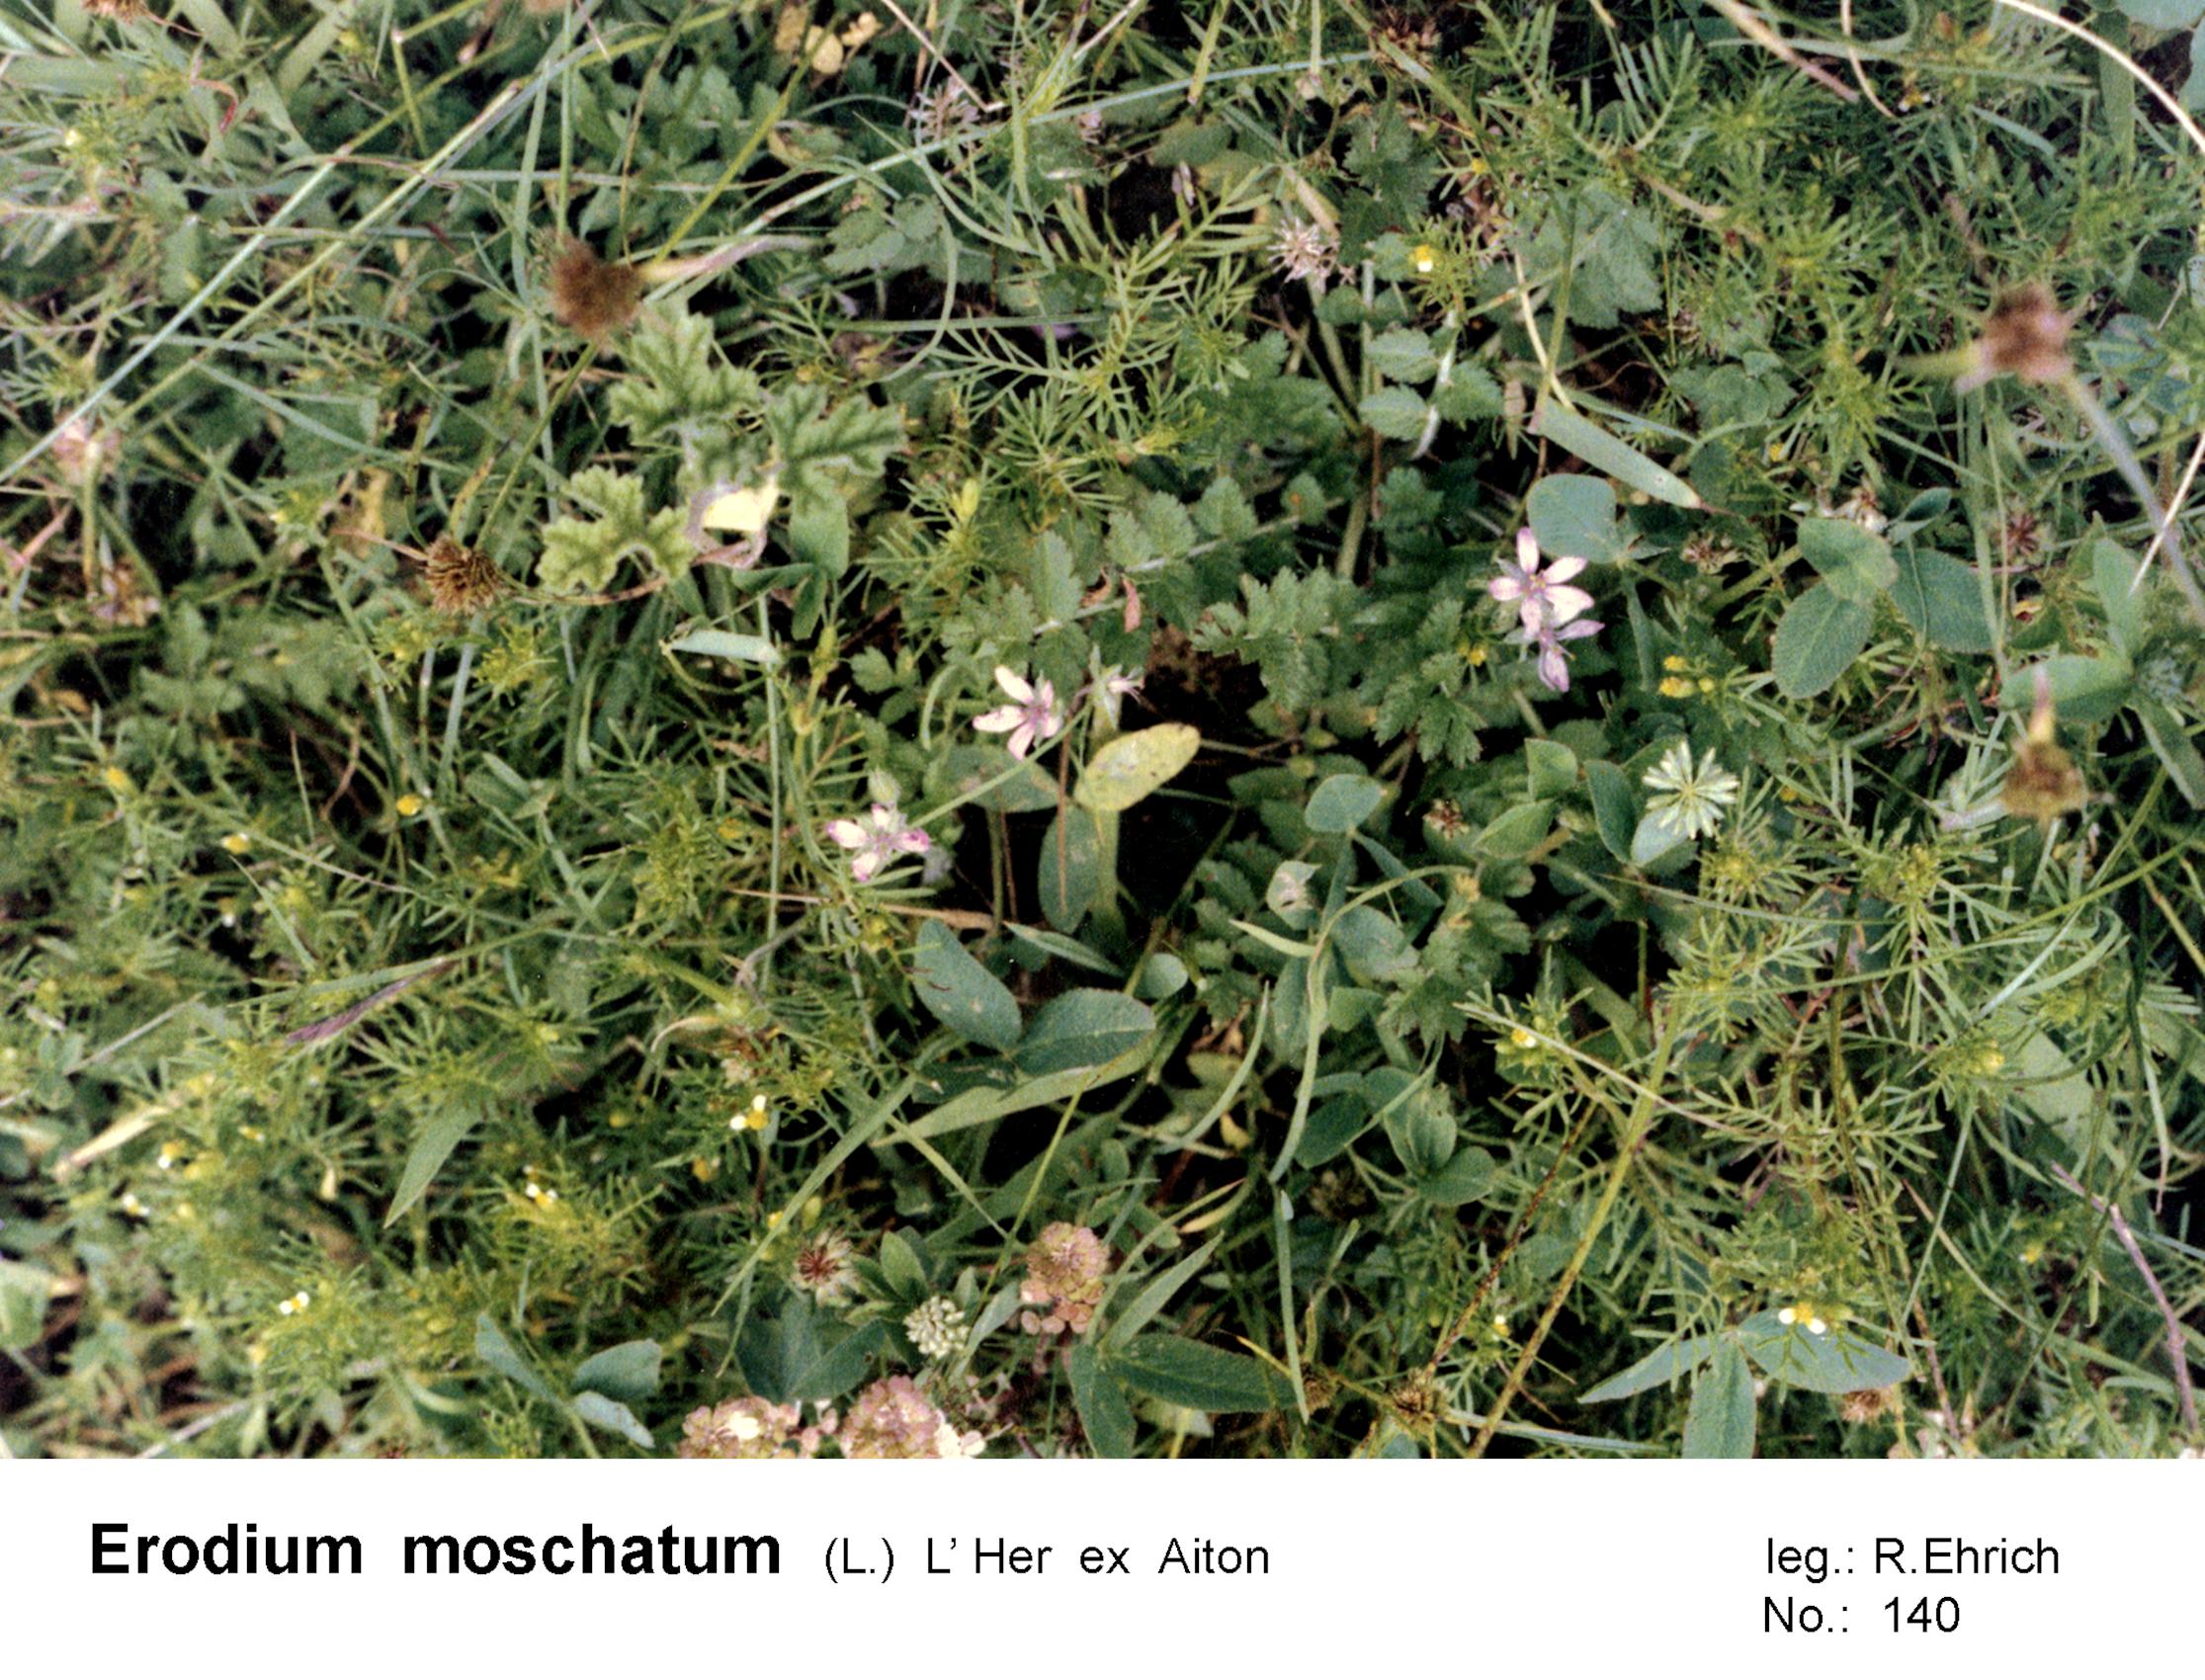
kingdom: Plantae
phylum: Tracheophyta
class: Magnoliopsida
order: Geraniales
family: Geraniaceae
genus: Erodium
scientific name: Erodium moschatum
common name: Musk stork's-bill
